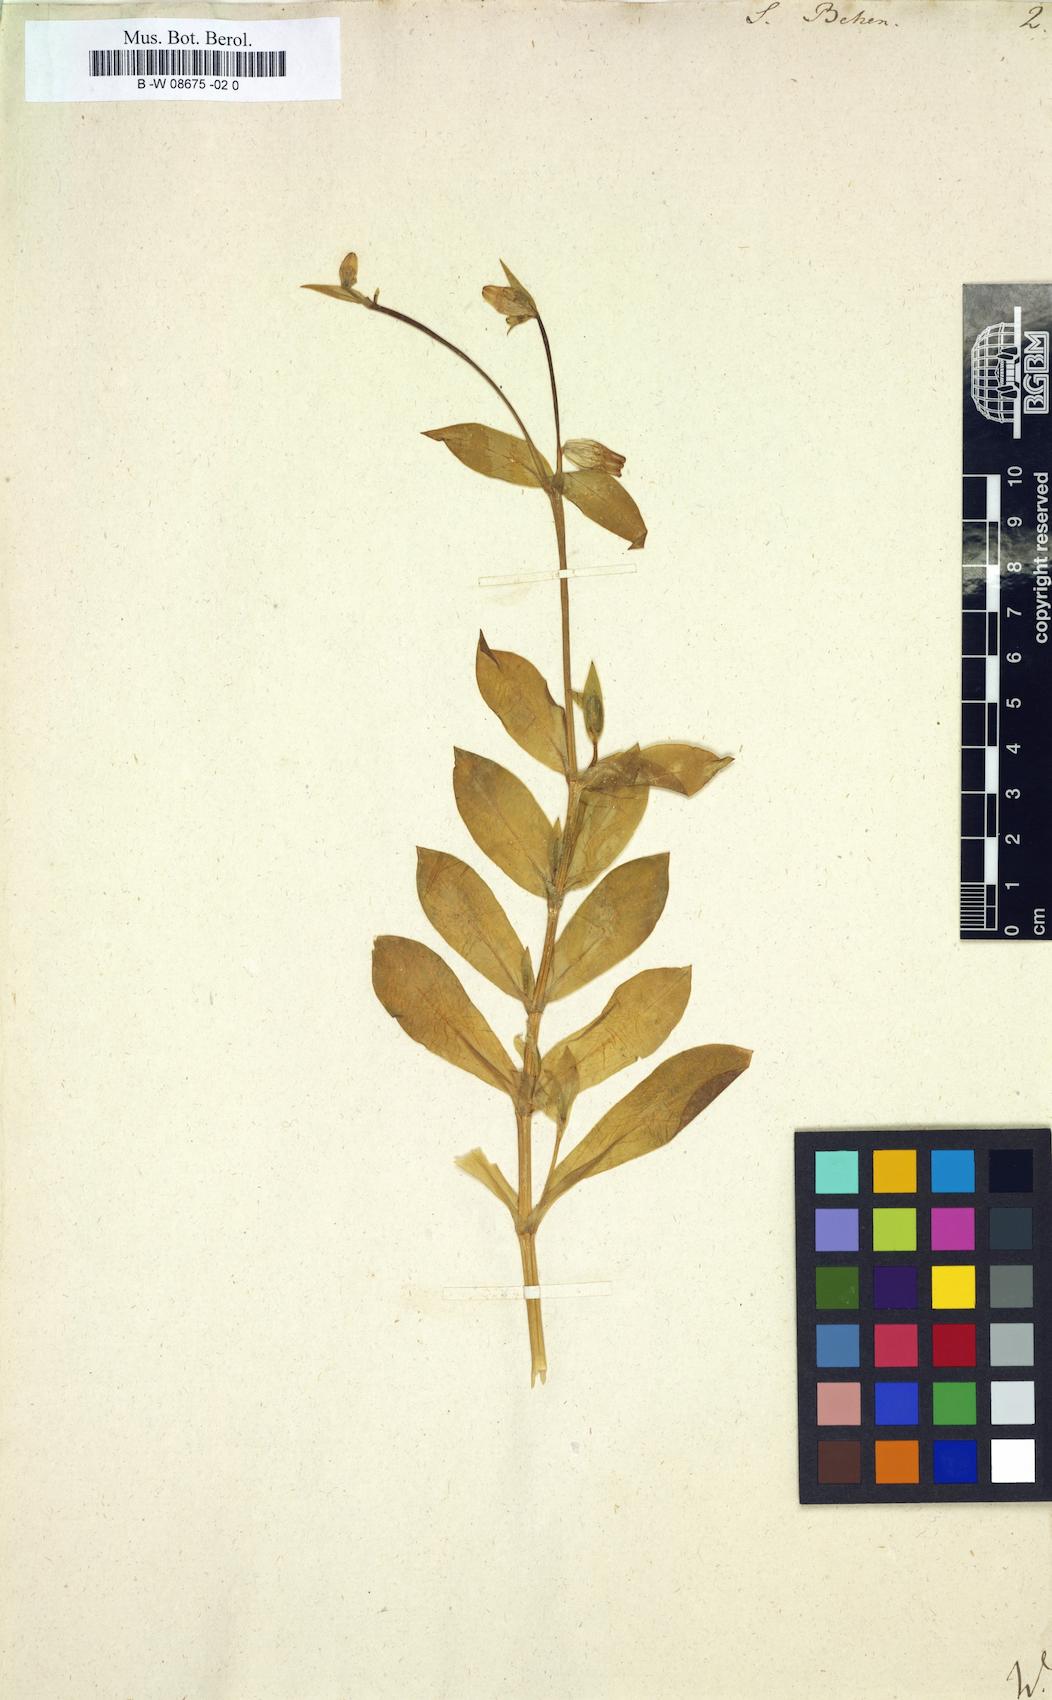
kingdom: Plantae
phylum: Tracheophyta
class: Magnoliopsida
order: Caryophyllales
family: Caryophyllaceae
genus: Silene
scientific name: Silene behen
